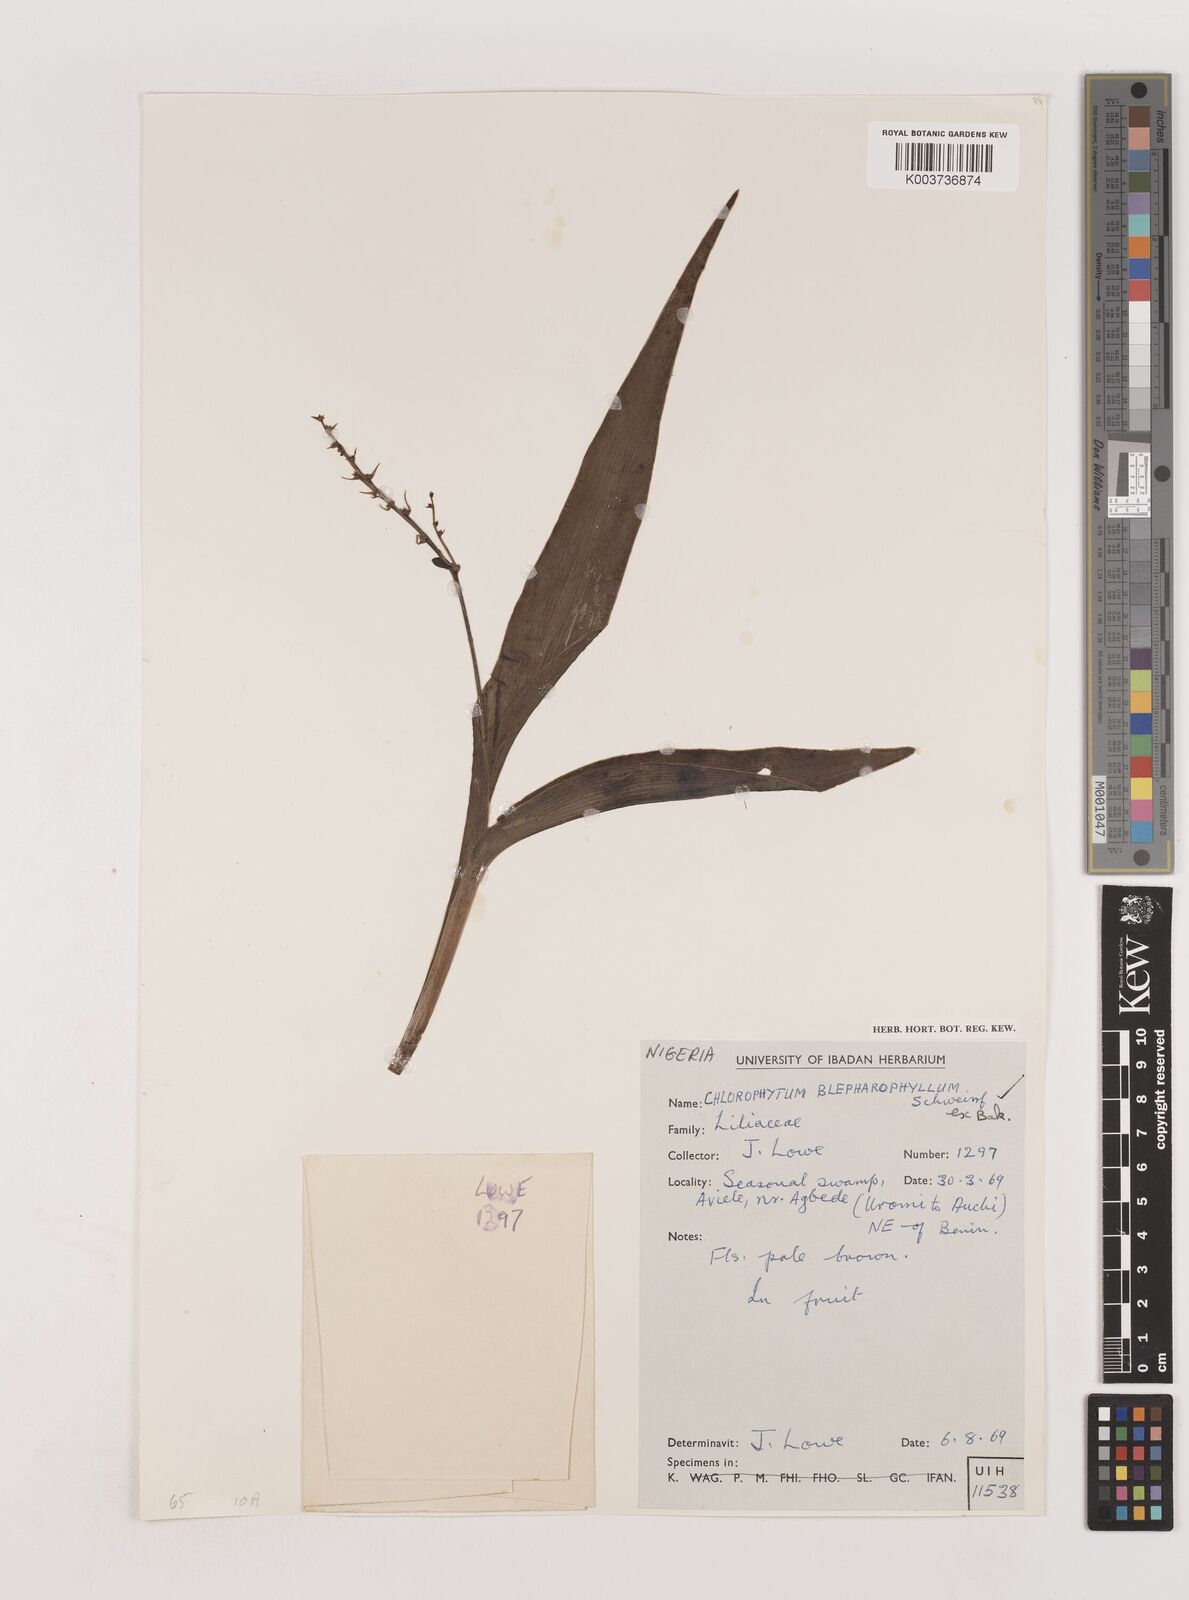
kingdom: Plantae
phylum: Tracheophyta
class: Liliopsida
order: Asparagales
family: Asparagaceae
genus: Chlorophytum
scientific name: Chlorophytum blepharophyllum
